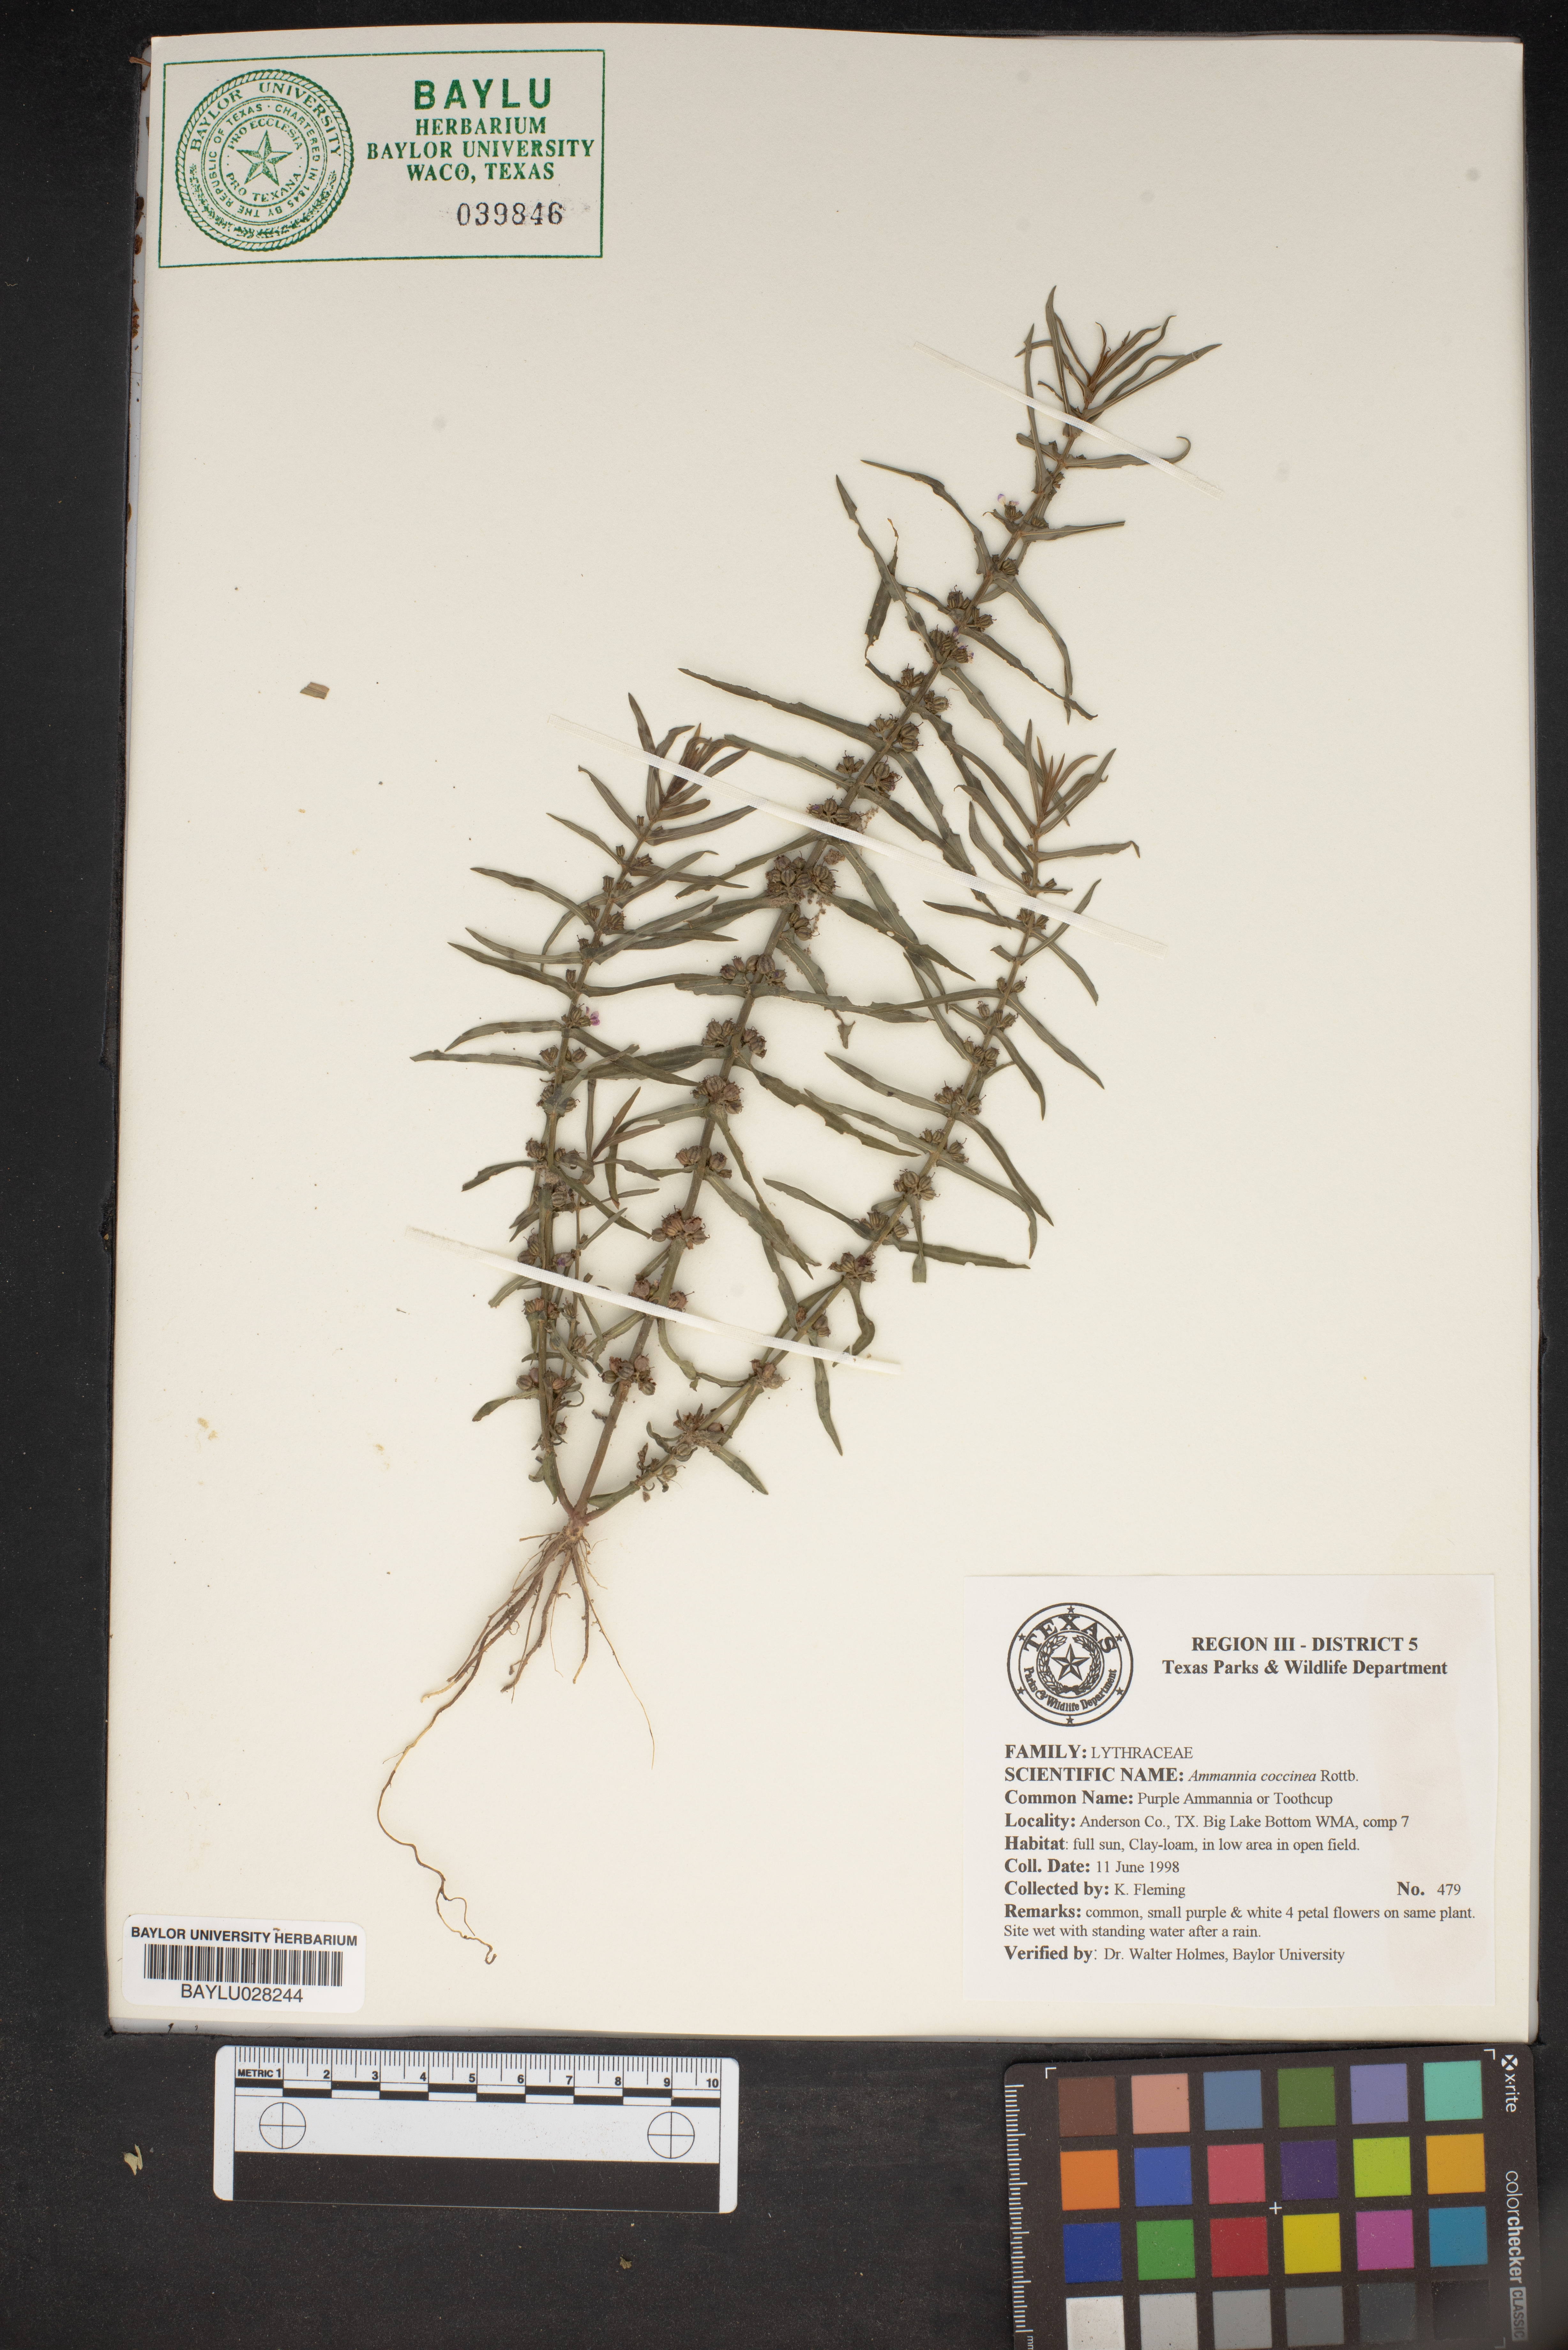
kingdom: Plantae
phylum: Tracheophyta
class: Magnoliopsida
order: Myrtales
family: Lythraceae
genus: Ammannia
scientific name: Ammannia coccinea
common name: Valley redstem
